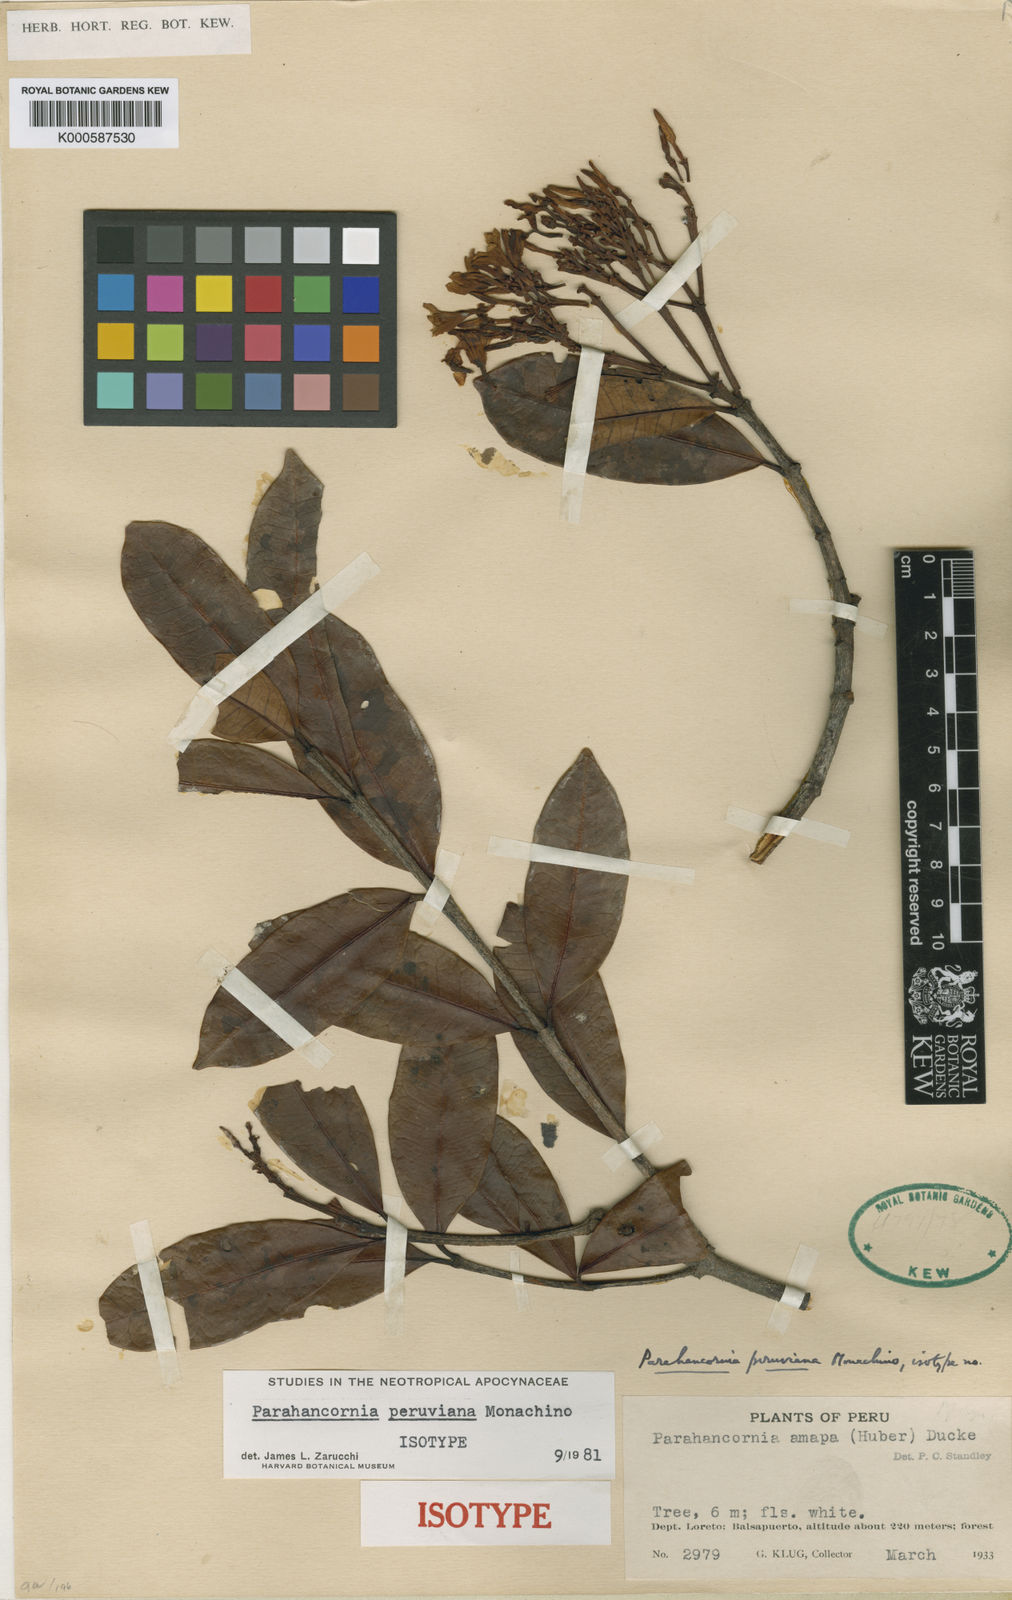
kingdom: Plantae
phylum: Tracheophyta
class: Magnoliopsida
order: Gentianales
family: Apocynaceae
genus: Parahancornia
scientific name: Parahancornia peruviana
